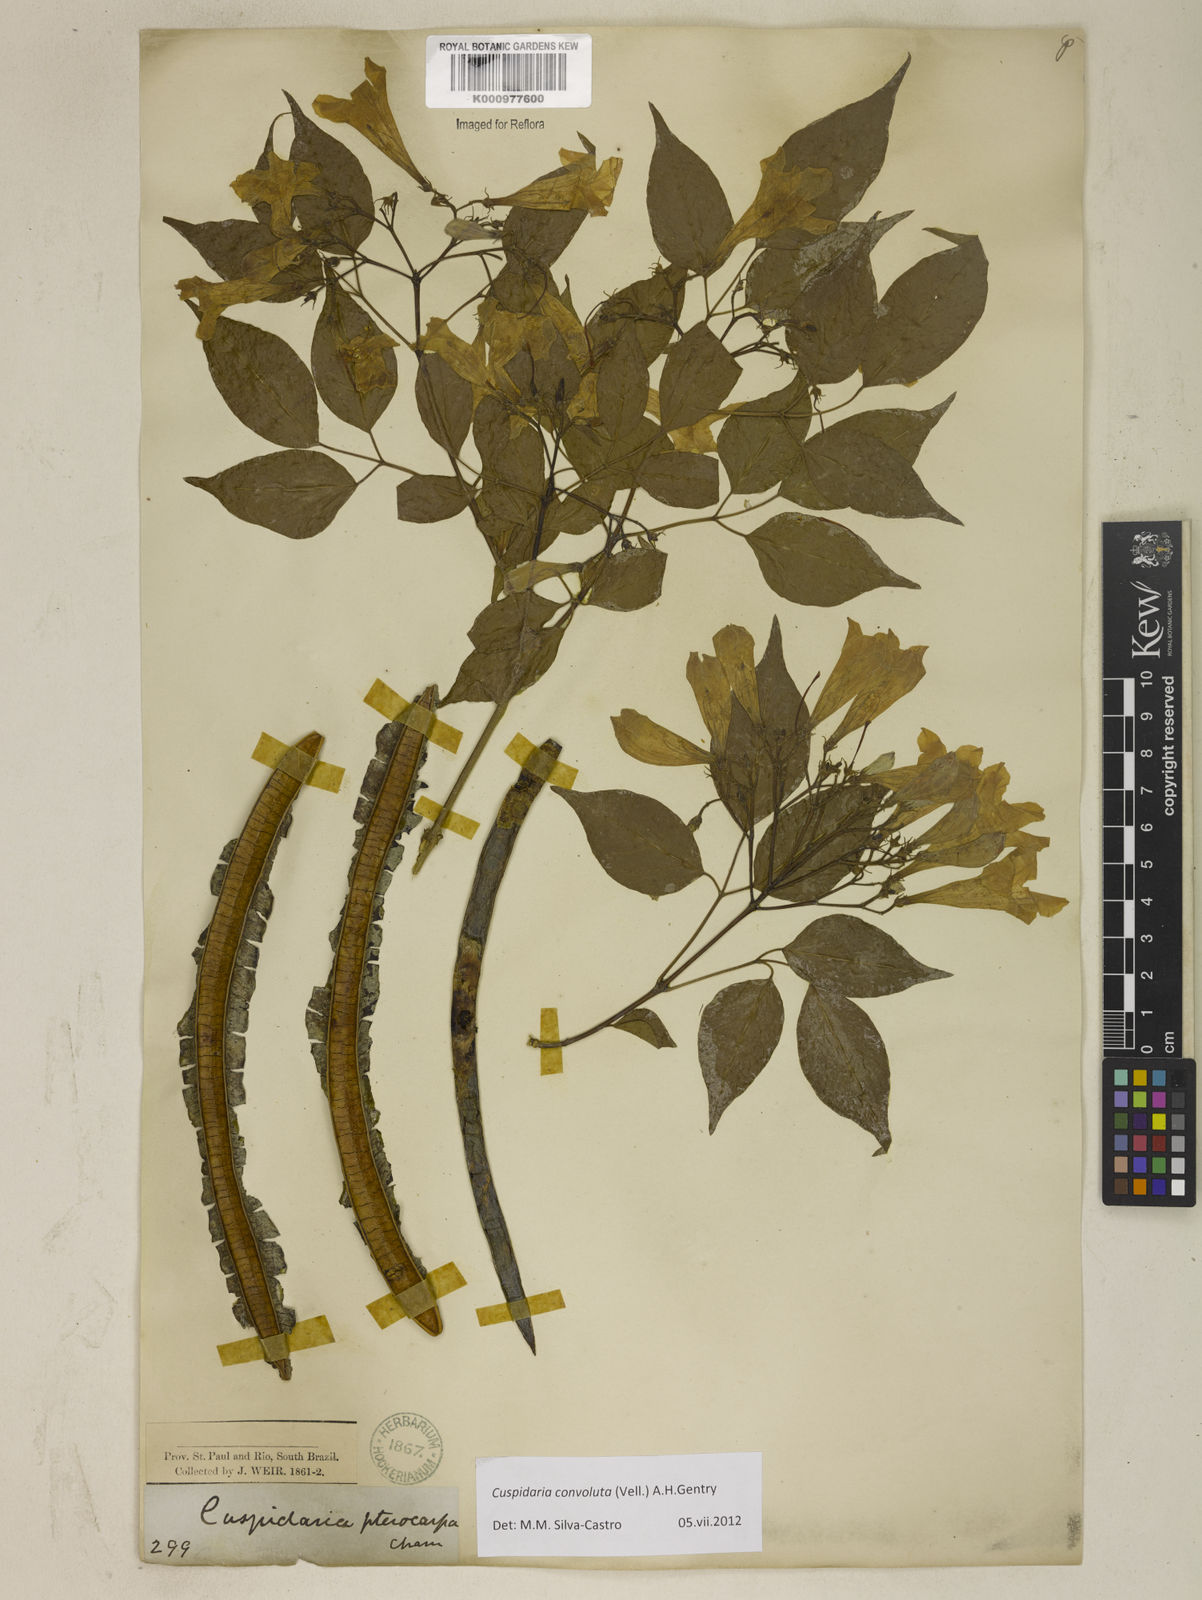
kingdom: Plantae
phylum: Tracheophyta
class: Magnoliopsida
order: Lamiales
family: Bignoniaceae
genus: Cuspidaria
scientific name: Cuspidaria convoluta
